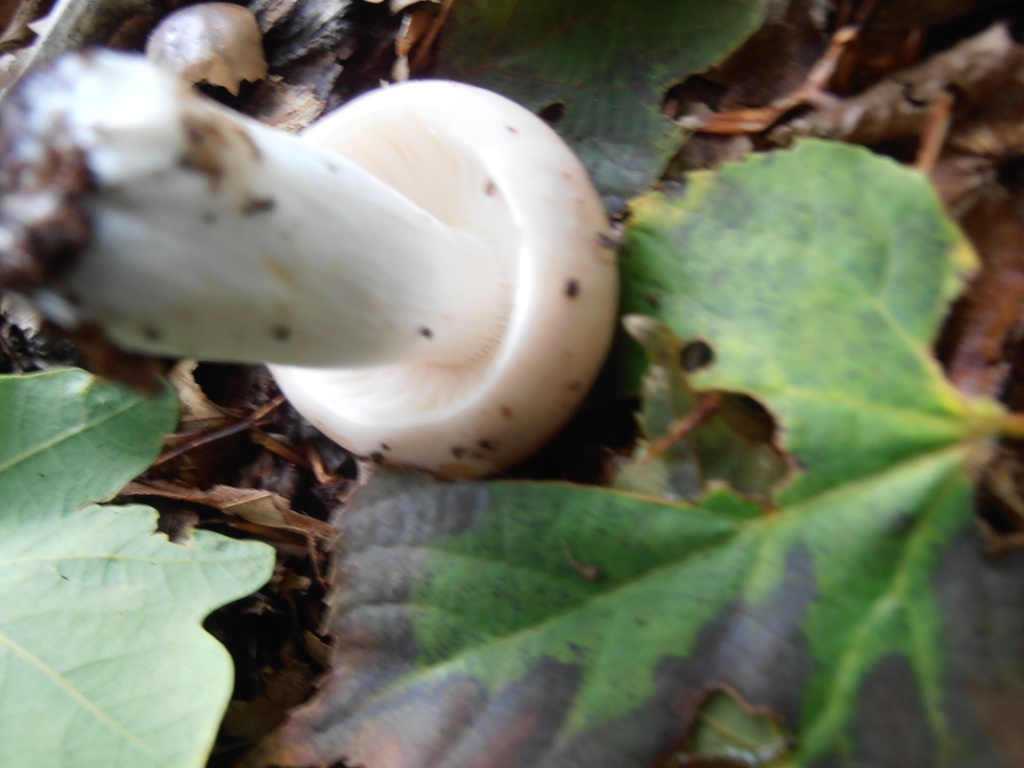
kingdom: Fungi
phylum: Basidiomycota
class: Agaricomycetes
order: Russulales
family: Russulaceae
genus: Russula
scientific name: Russula vesca
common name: spiselig skørhat
